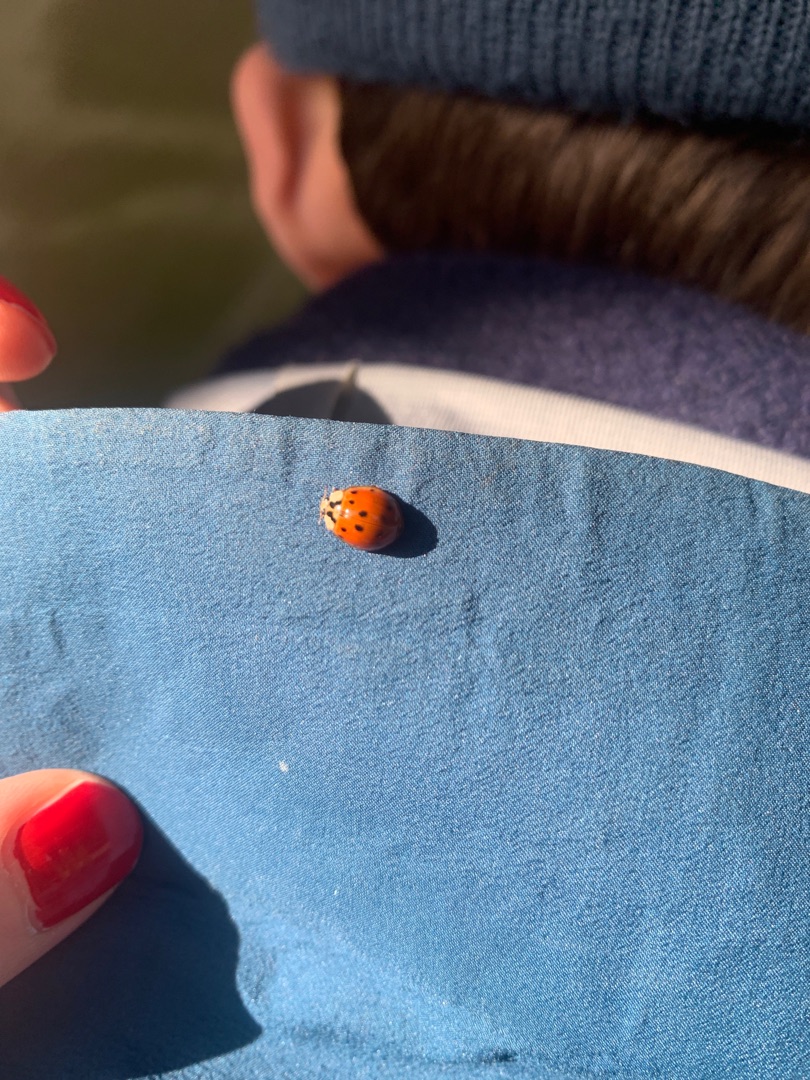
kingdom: Animalia
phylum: Arthropoda
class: Insecta
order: Coleoptera
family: Coccinellidae
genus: Harmonia
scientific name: Harmonia axyridis
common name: Harlekinmariehøne
